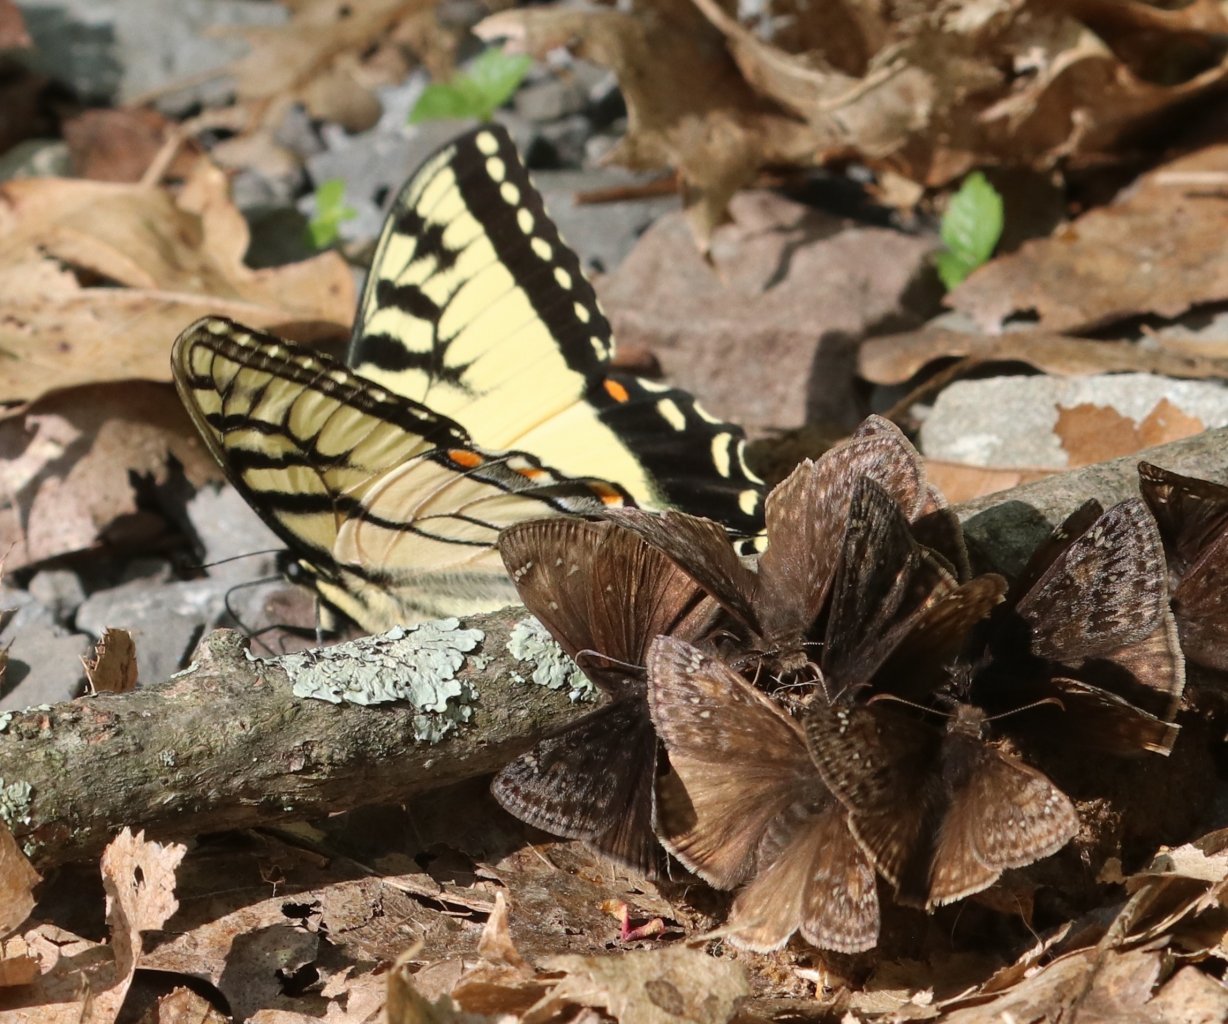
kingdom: Animalia
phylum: Arthropoda
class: Insecta
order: Lepidoptera
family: Papilionidae
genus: Pterourus
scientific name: Pterourus appalachiensis
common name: Appalachian Tiger Swallowtail
